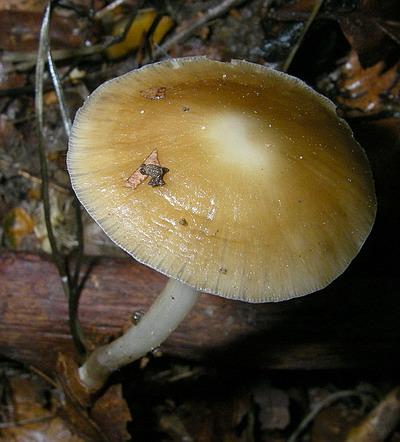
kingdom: Fungi
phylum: Basidiomycota
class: Agaricomycetes
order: Agaricales
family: Porotheleaceae
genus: Hydropodia
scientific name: Hydropodia subalpina
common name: vår-fnugfod
